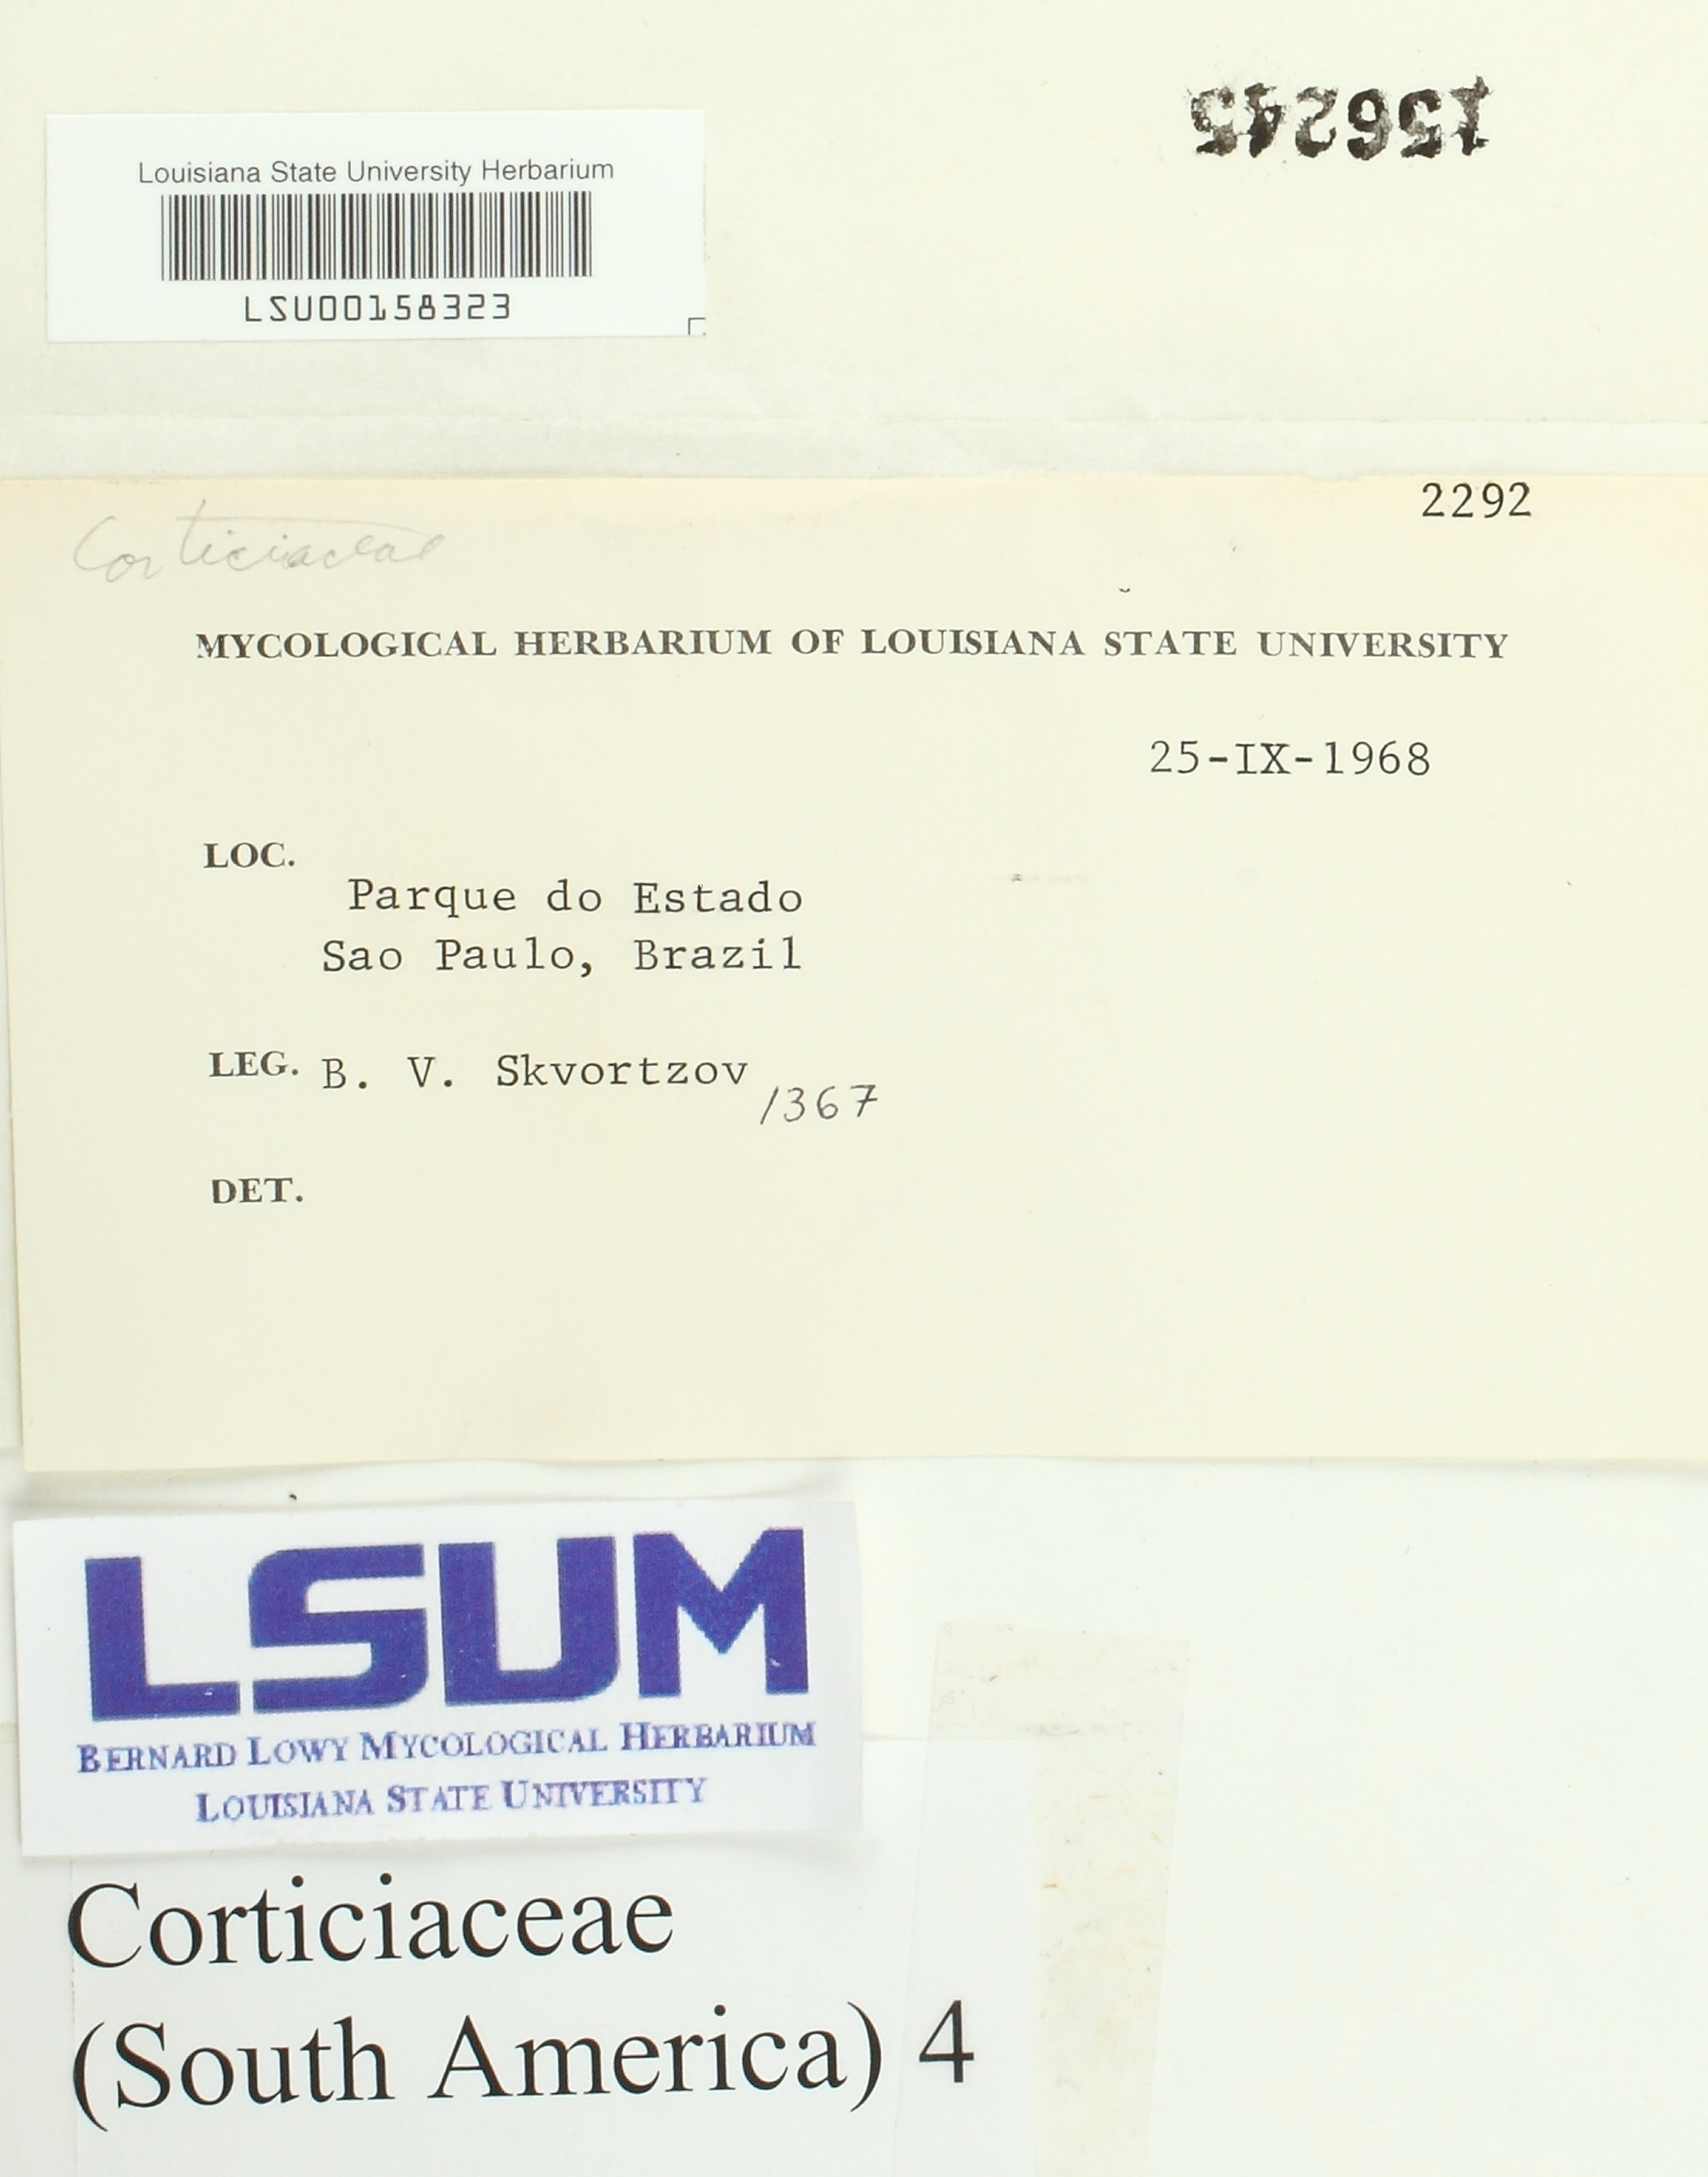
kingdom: Fungi
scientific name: Fungi
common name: Fungi
